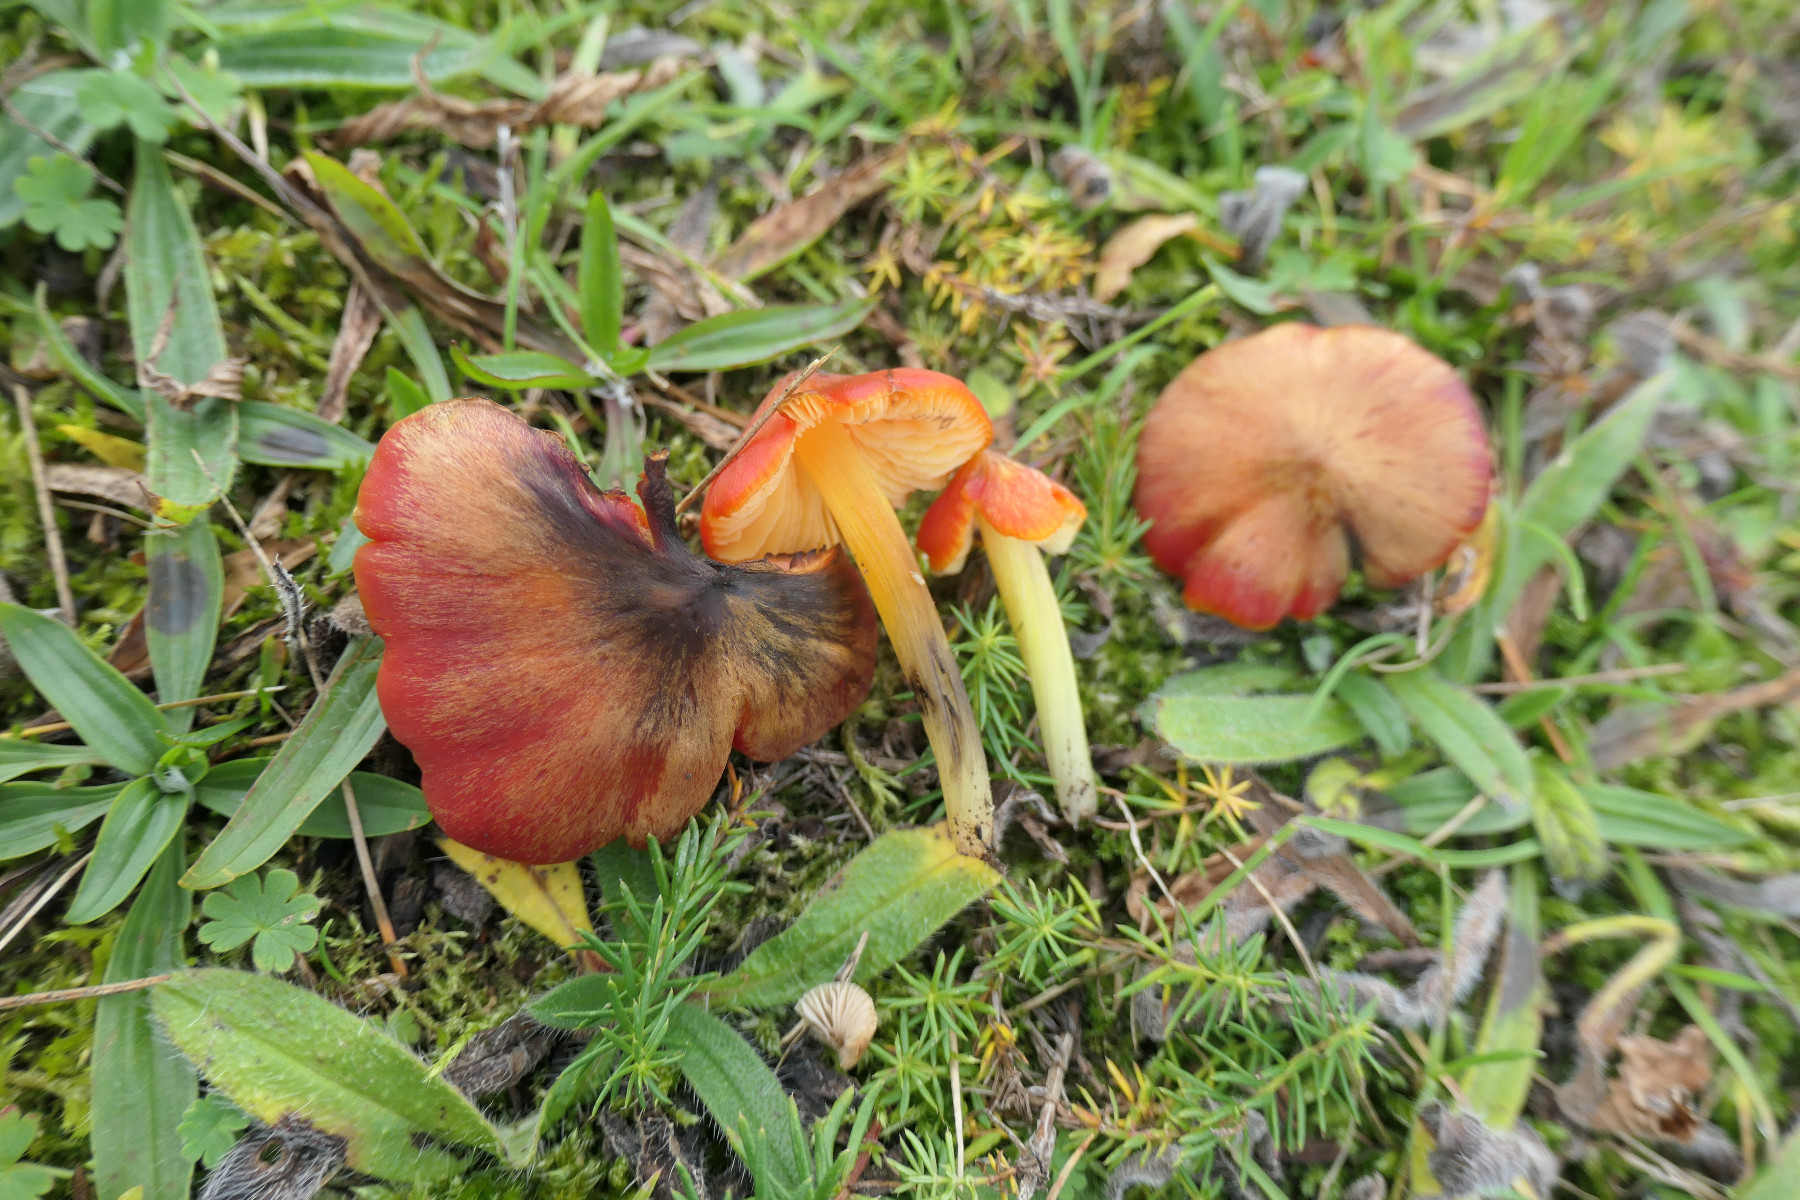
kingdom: Fungi
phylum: Basidiomycota
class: Agaricomycetes
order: Agaricales
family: Hygrophoraceae
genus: Hygrocybe
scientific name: Hygrocybe conica
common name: kegle-vokshat
